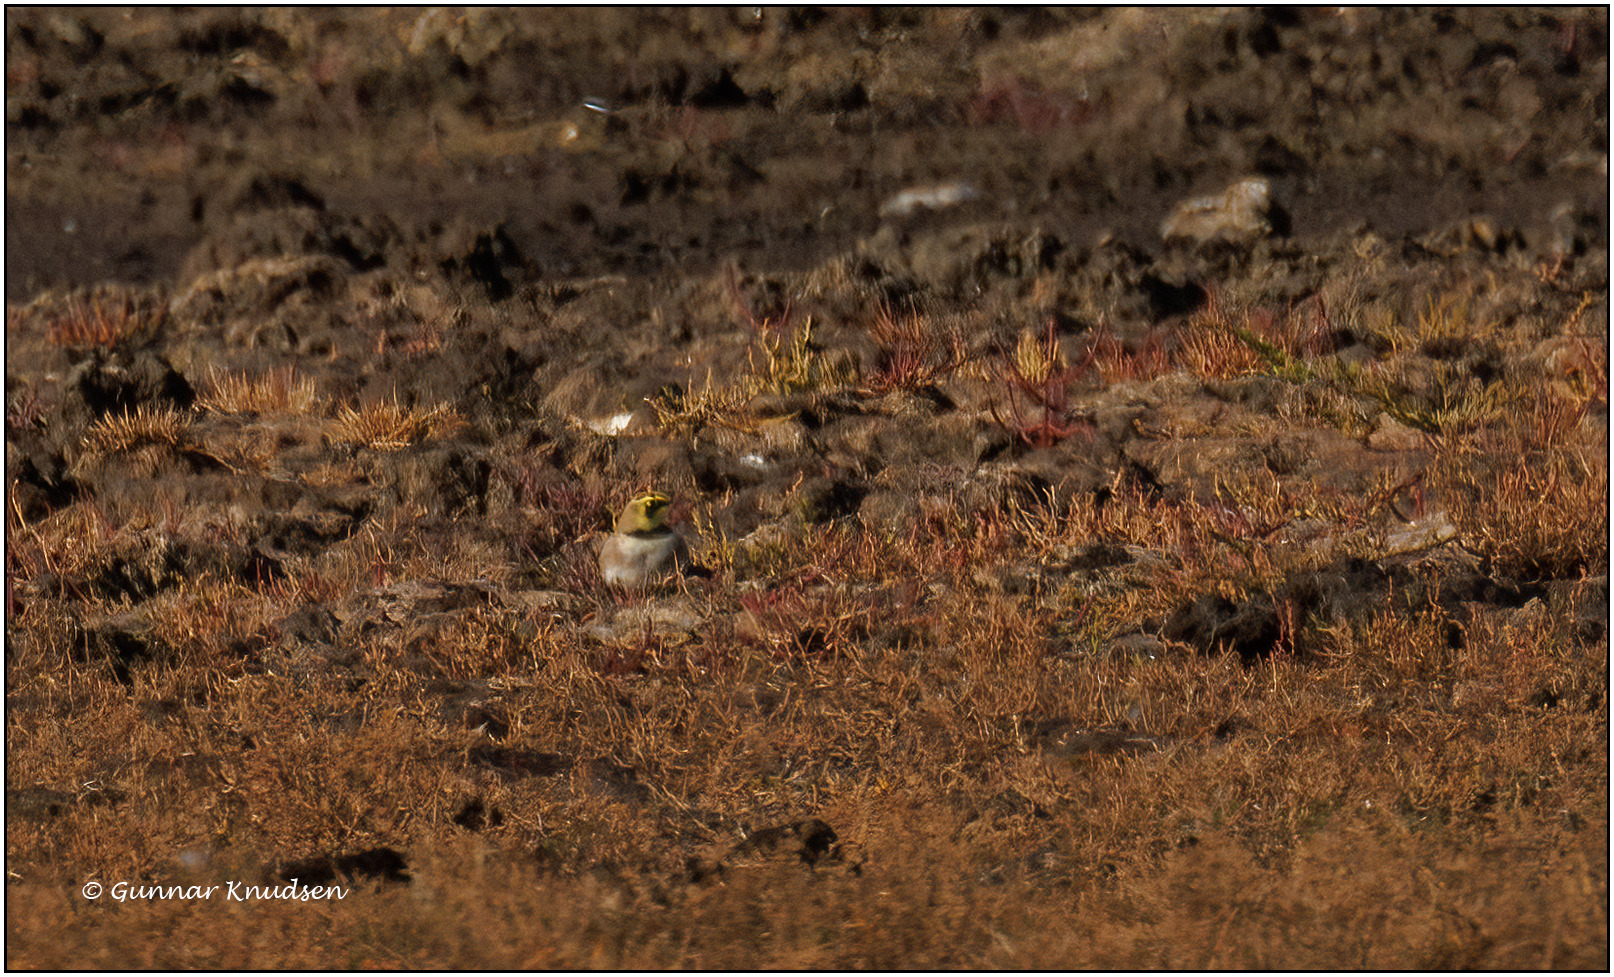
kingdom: Animalia
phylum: Chordata
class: Aves
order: Passeriformes
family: Alaudidae
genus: Eremophila
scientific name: Eremophila alpestris
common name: Bjerglærke
